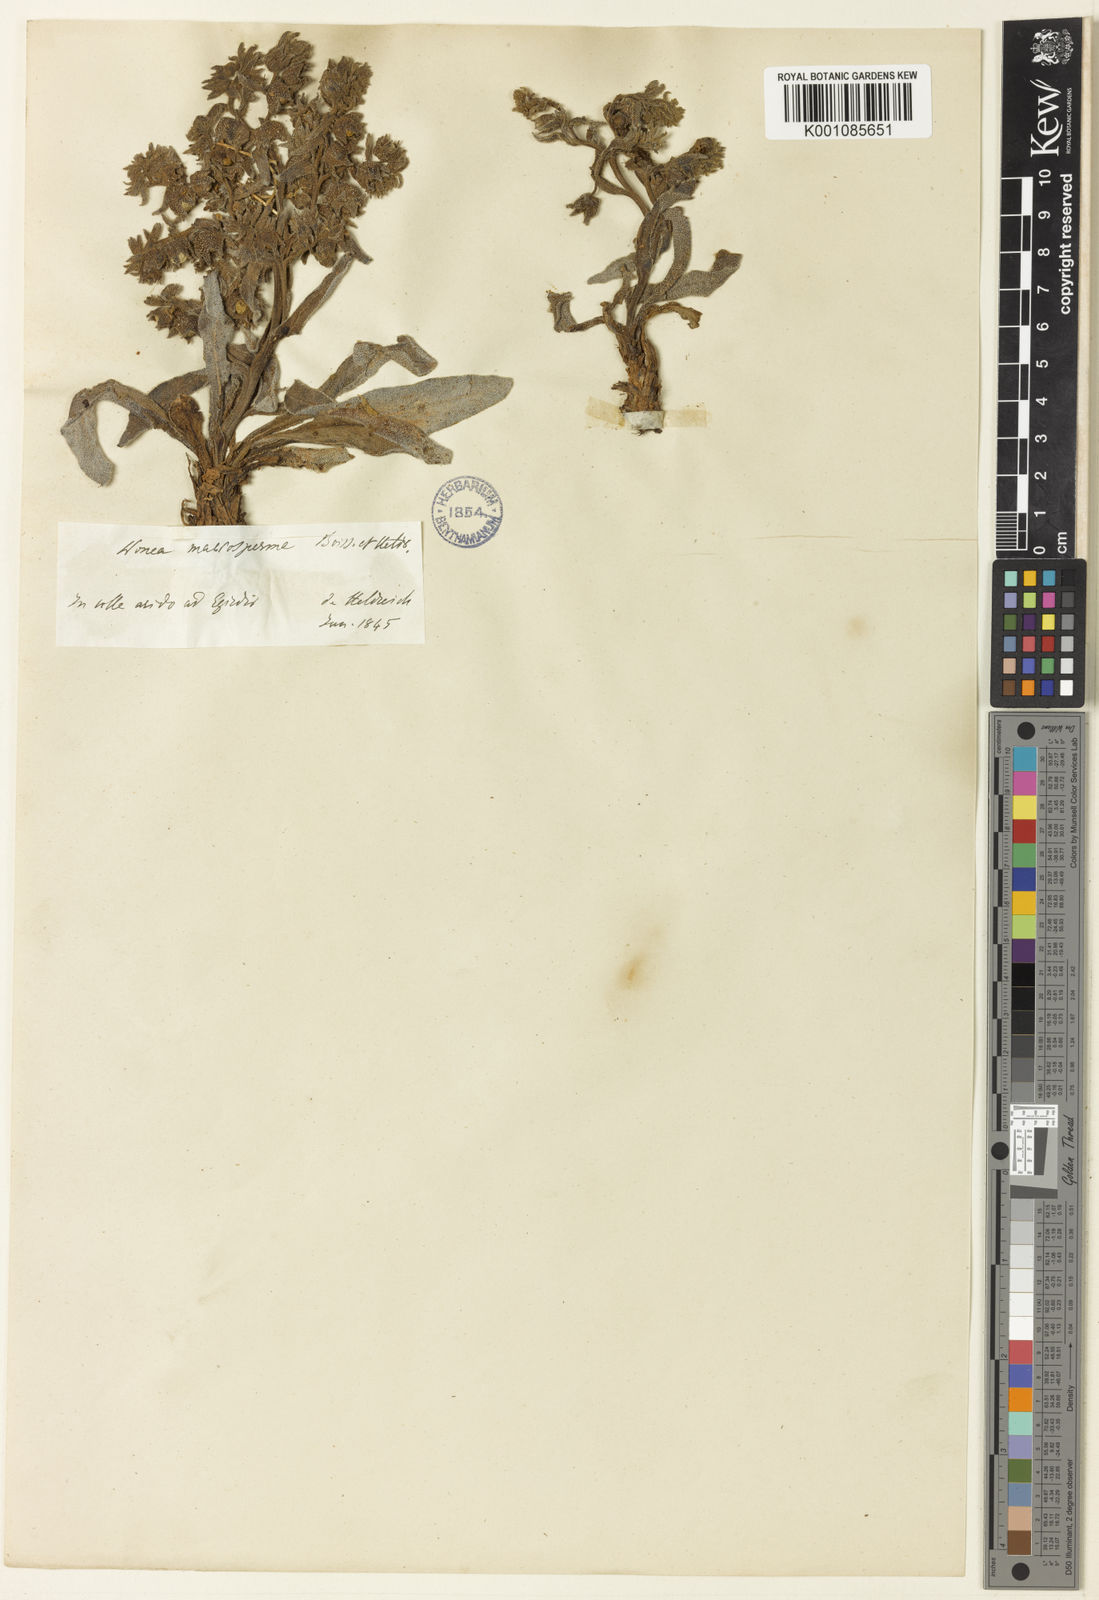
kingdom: Plantae
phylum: Tracheophyta
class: Magnoliopsida
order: Boraginales
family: Boraginaceae
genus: Nonea
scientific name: Nonea macrosperma
